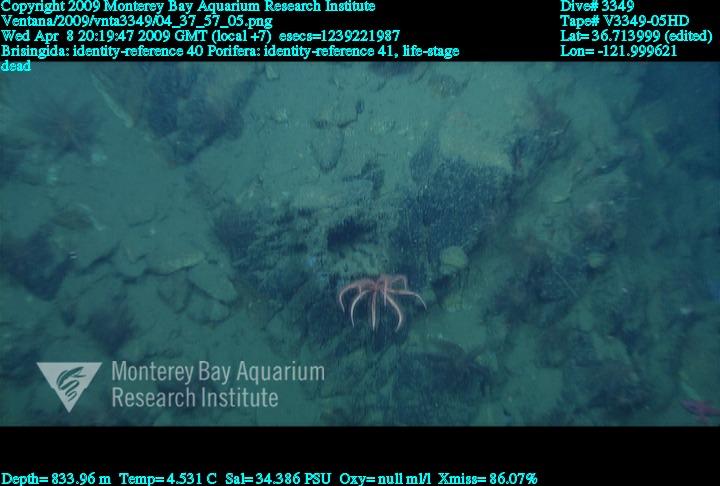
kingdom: Animalia
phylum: Porifera
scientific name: Porifera
